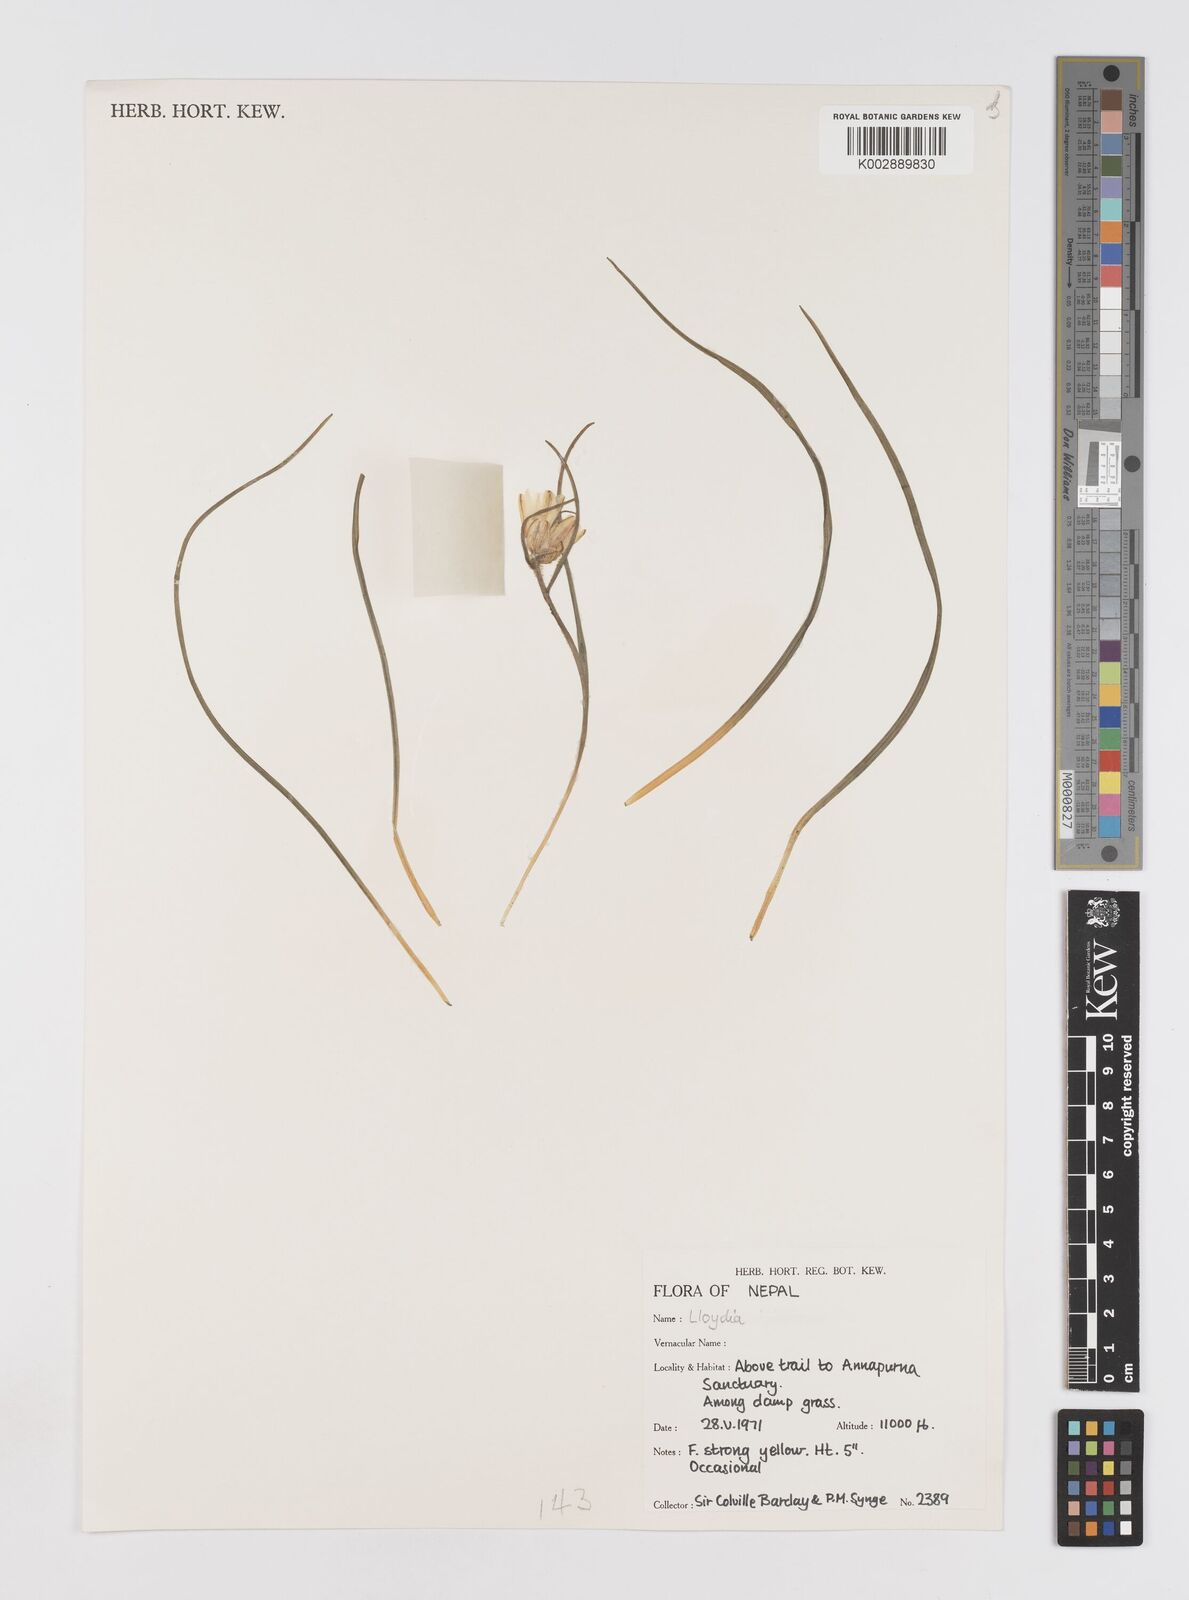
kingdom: Plantae
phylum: Tracheophyta
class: Liliopsida
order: Liliales
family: Liliaceae
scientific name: Liliaceae
